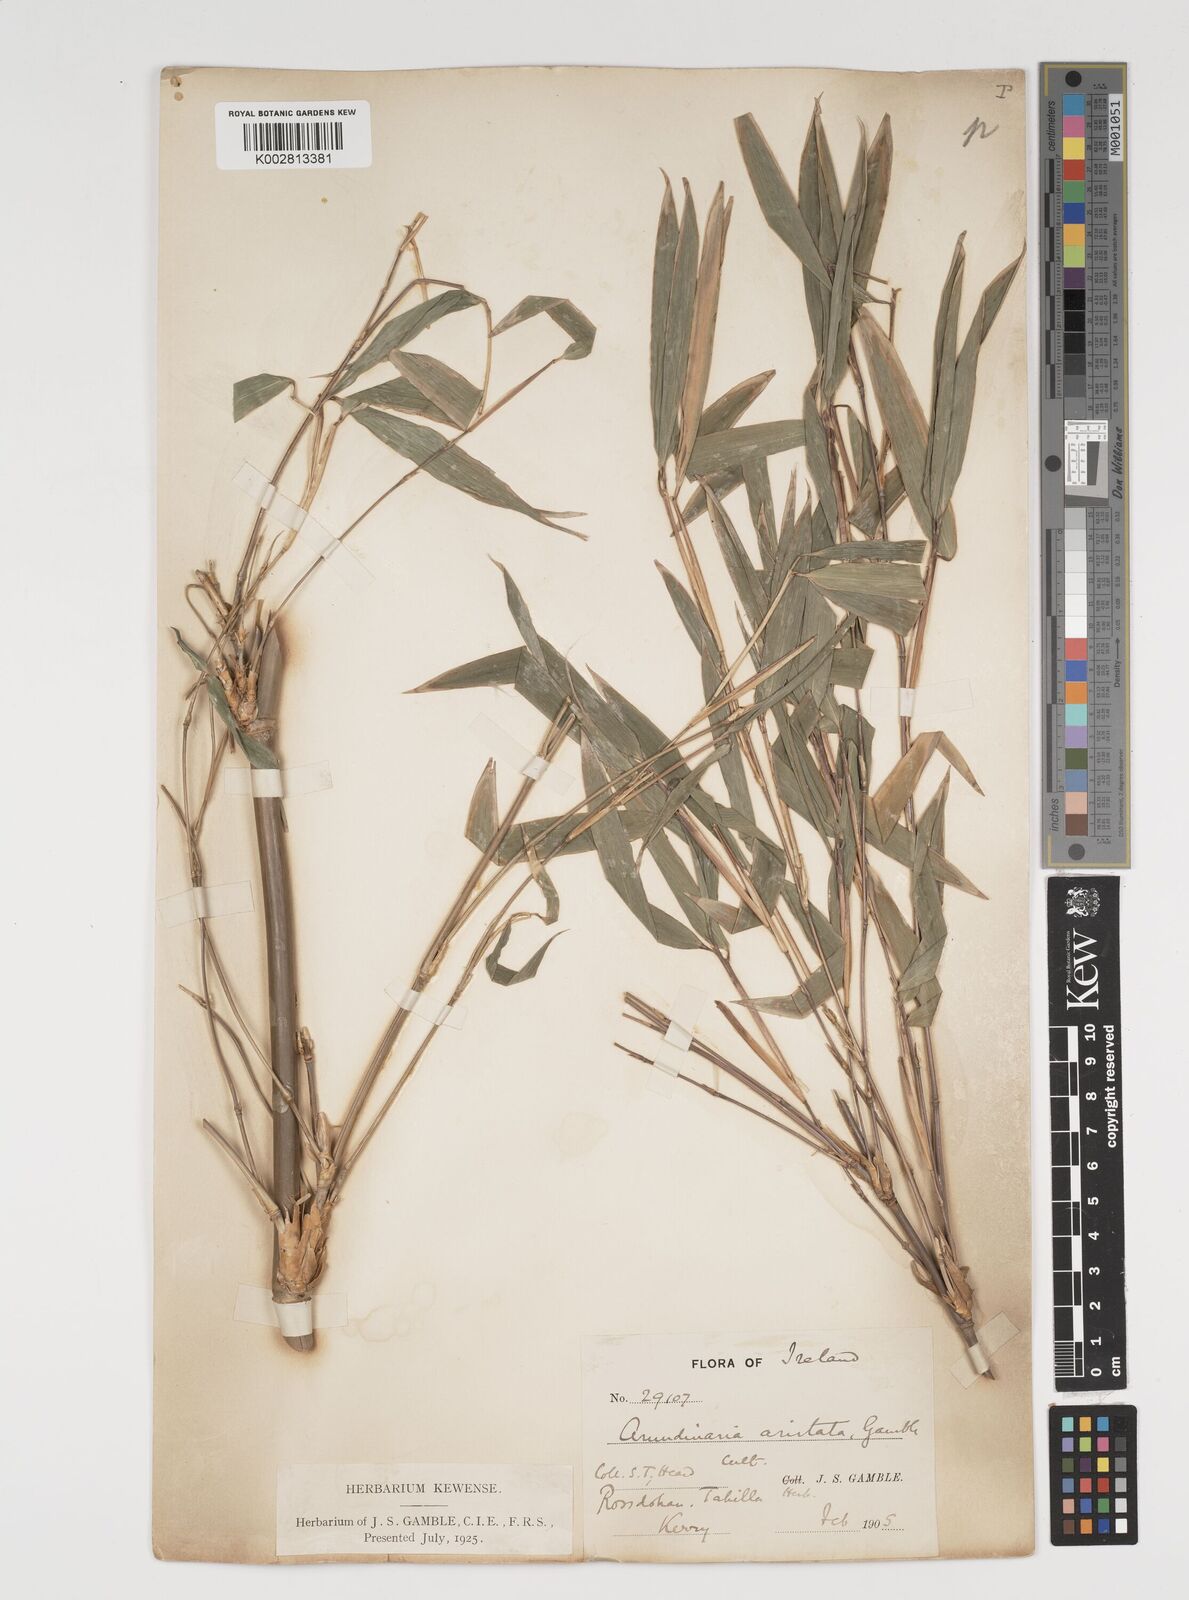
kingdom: Plantae
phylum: Tracheophyta
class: Liliopsida
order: Poales
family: Poaceae
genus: Thamnocalamus
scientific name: Thamnocalamus spathiflorus
